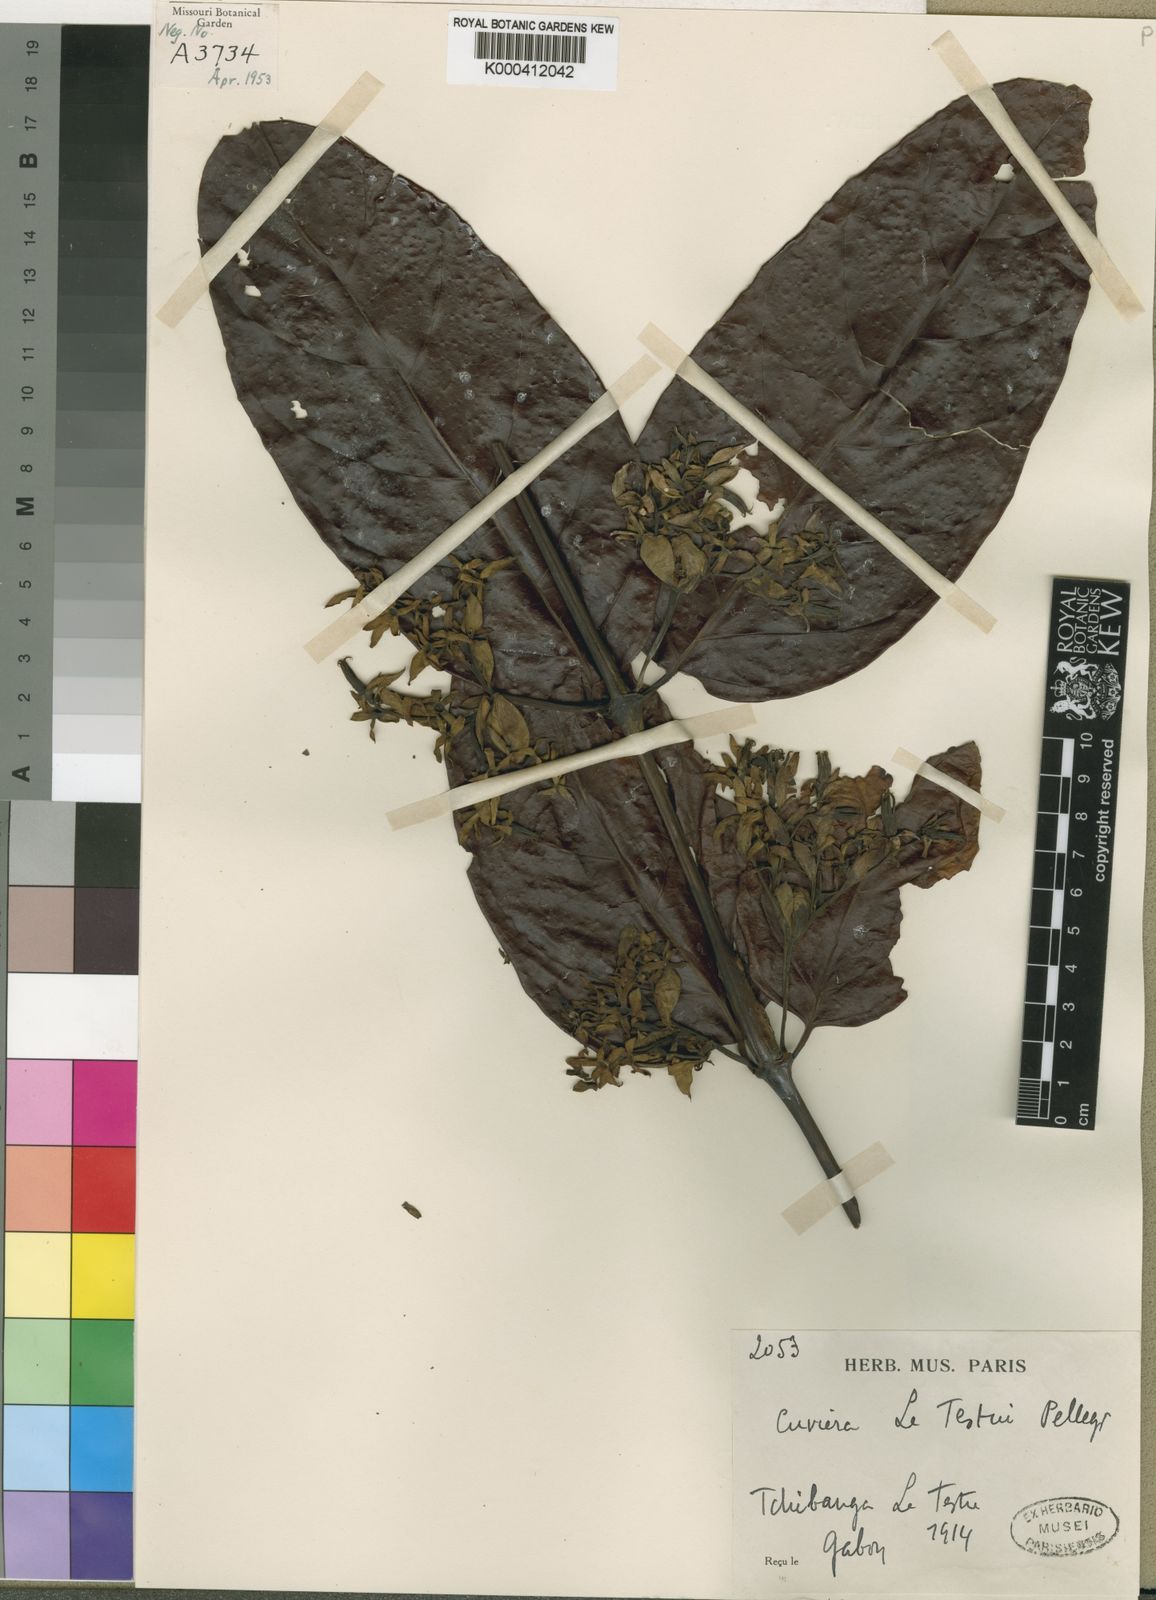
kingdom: Plantae
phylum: Tracheophyta
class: Magnoliopsida
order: Gentianales
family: Rubiaceae
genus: Cuviera
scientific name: Cuviera letestui
